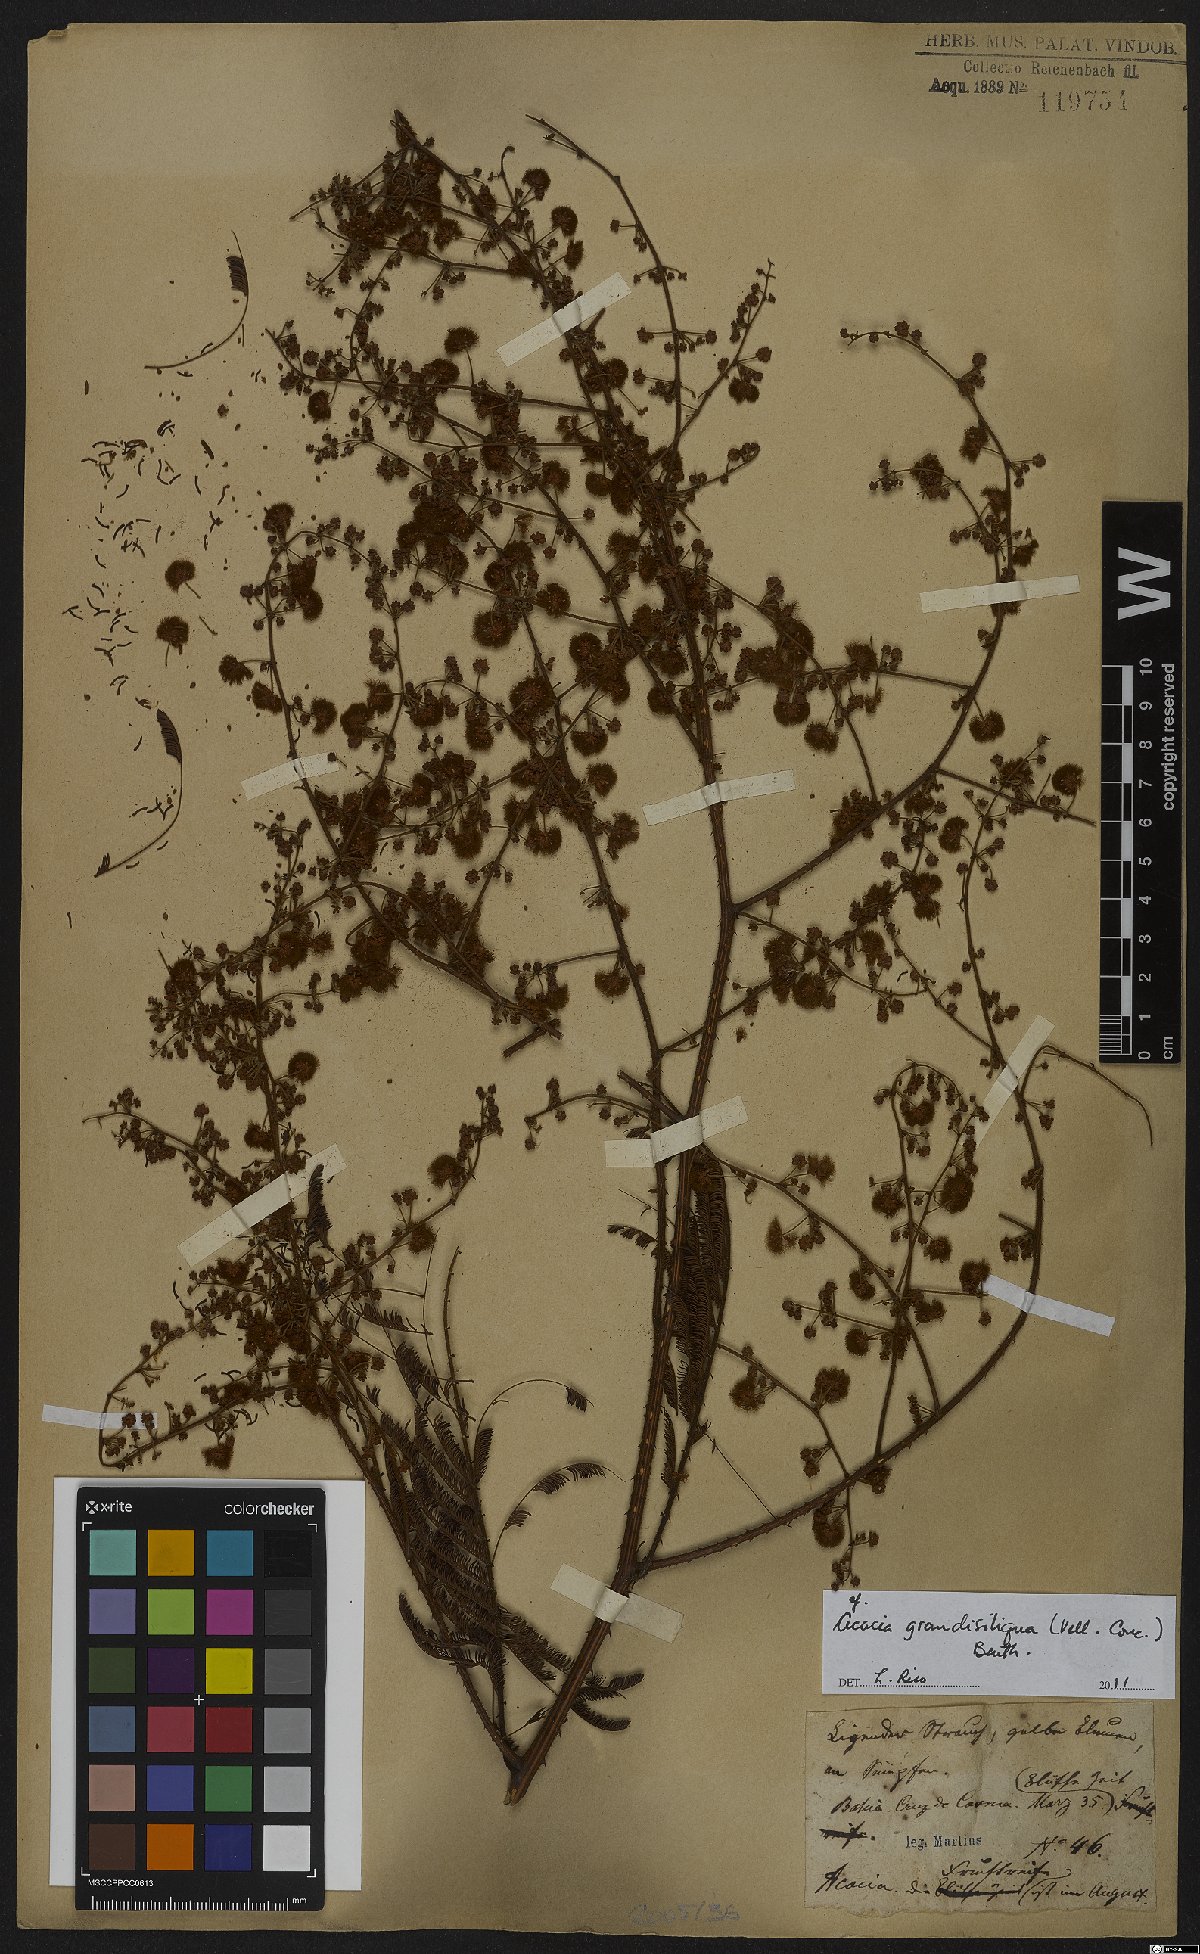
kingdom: Plantae
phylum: Tracheophyta
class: Magnoliopsida
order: Fabales
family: Fabaceae
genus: Senegalia
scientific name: Senegalia grandisiliqua
